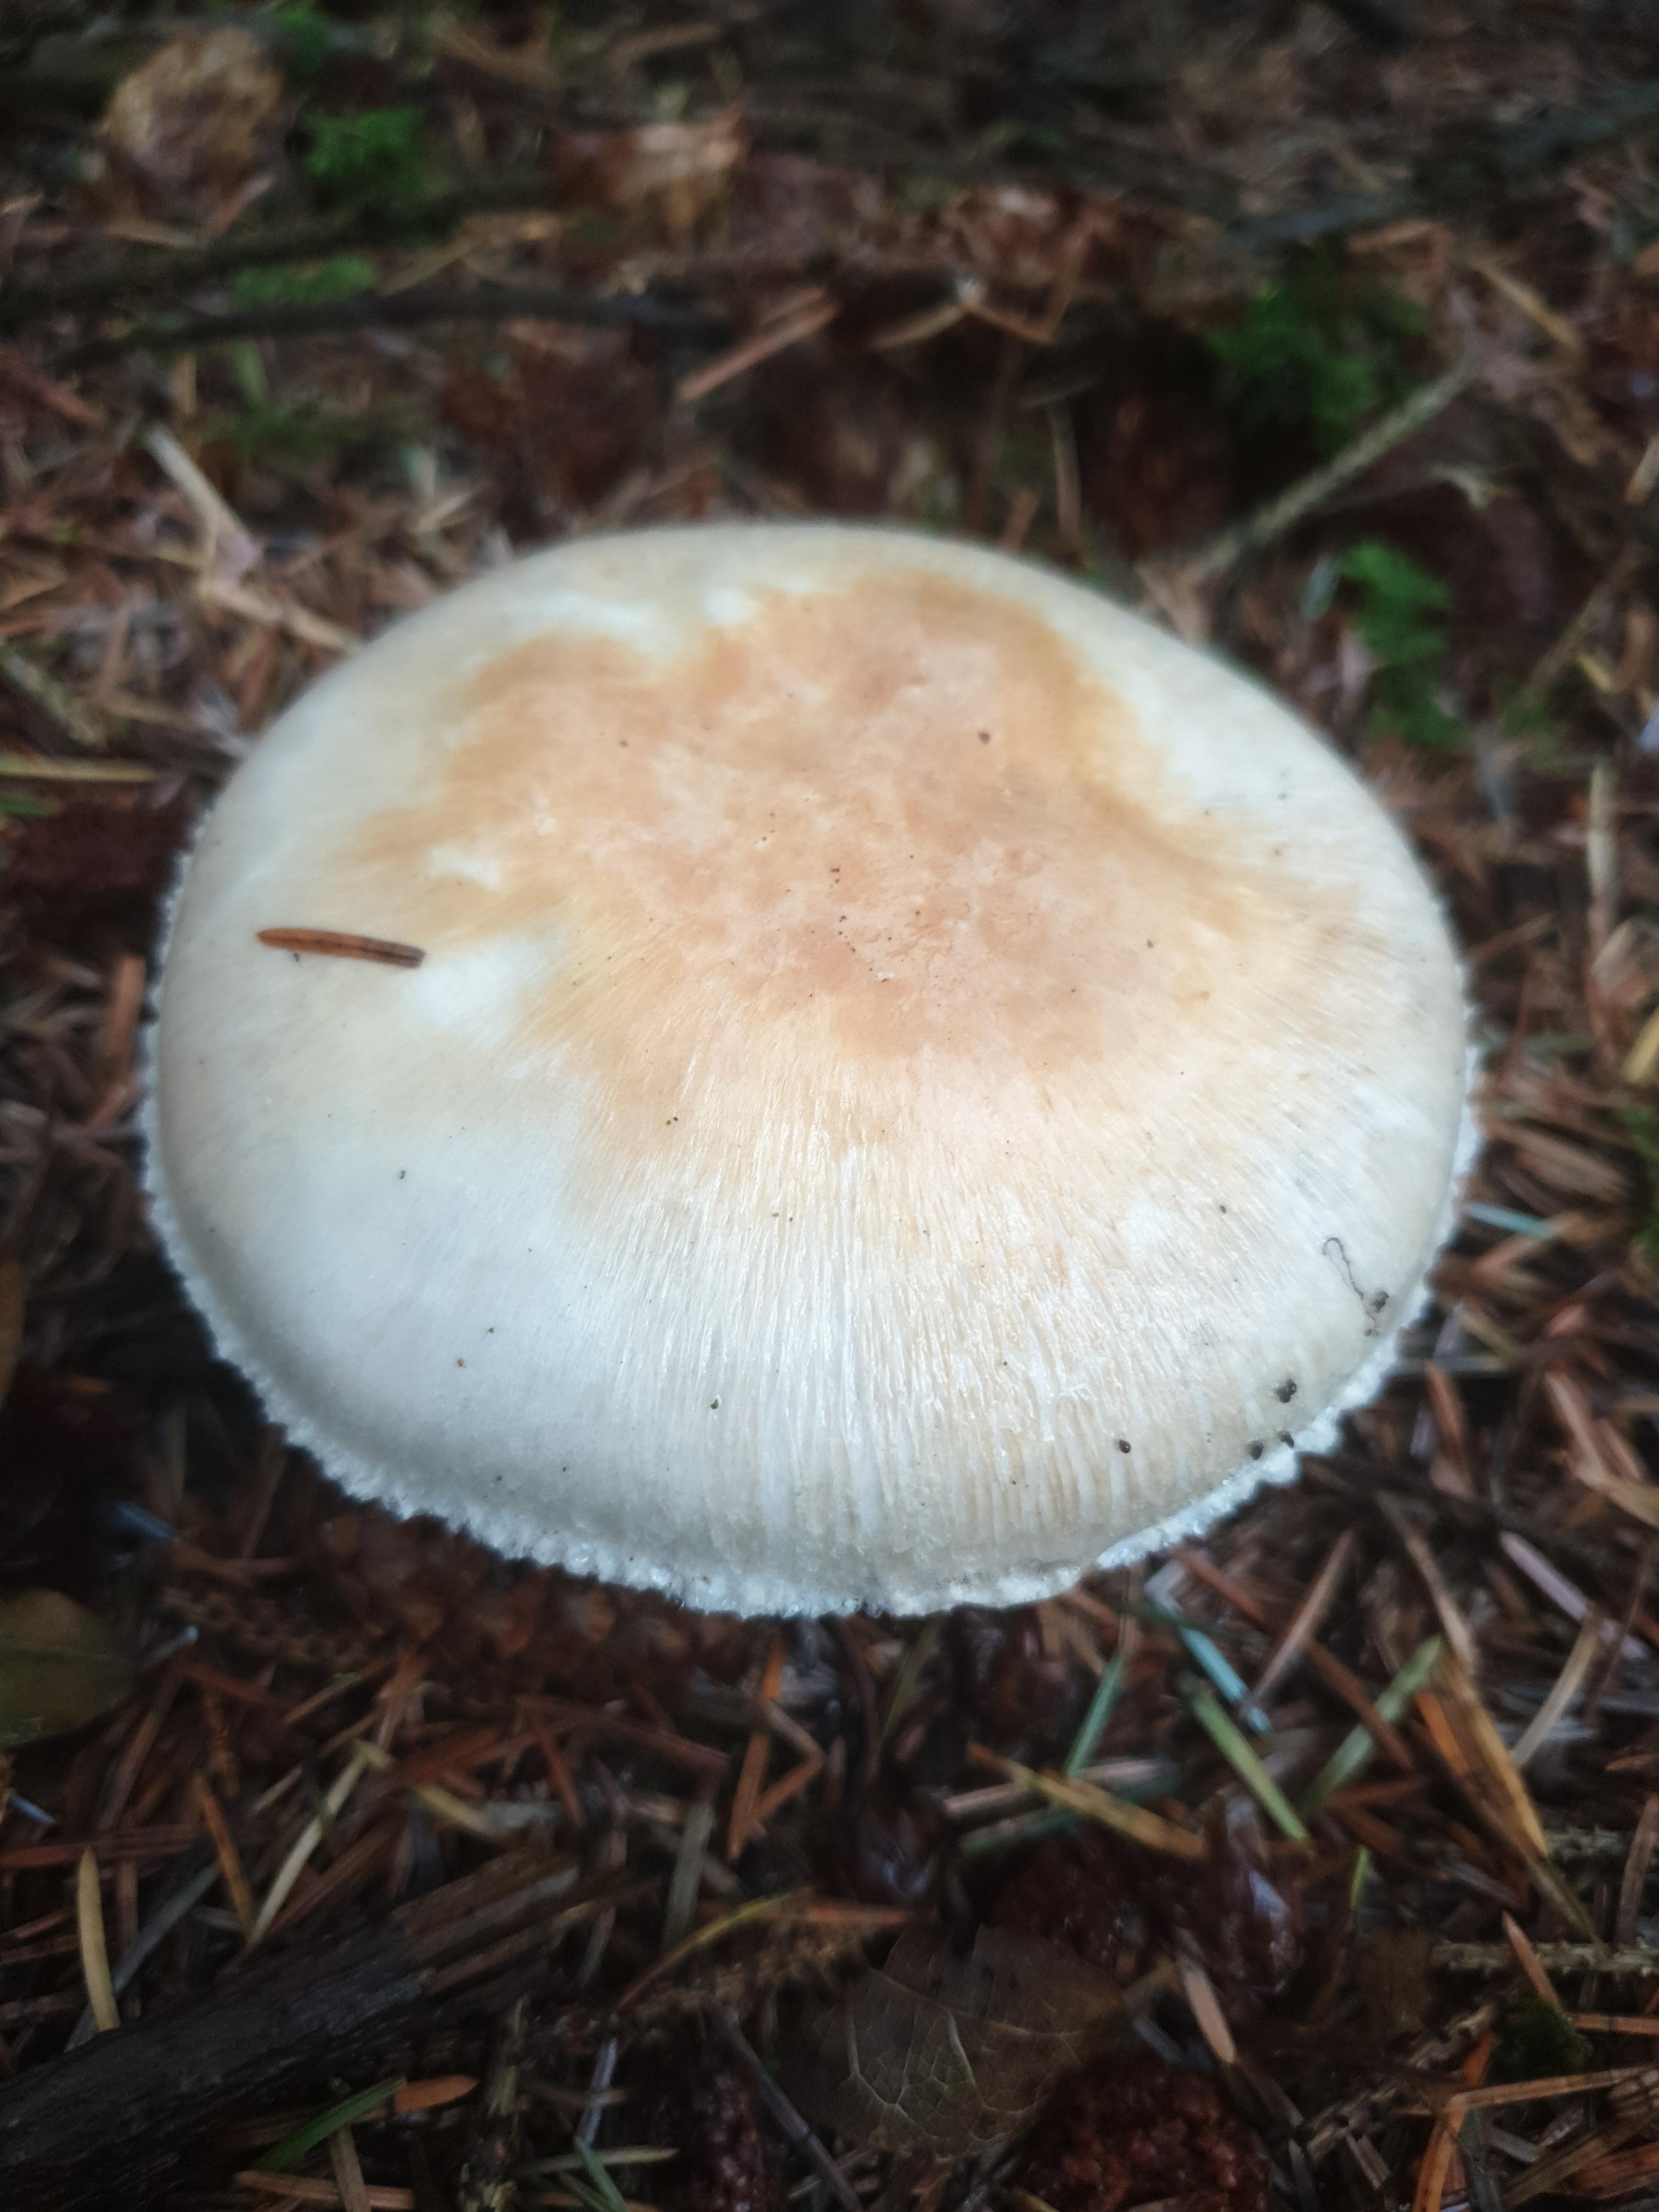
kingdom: Fungi
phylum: Basidiomycota
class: Agaricomycetes
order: Agaricales
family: Agaricaceae
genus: Agaricus
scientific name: Agaricus
